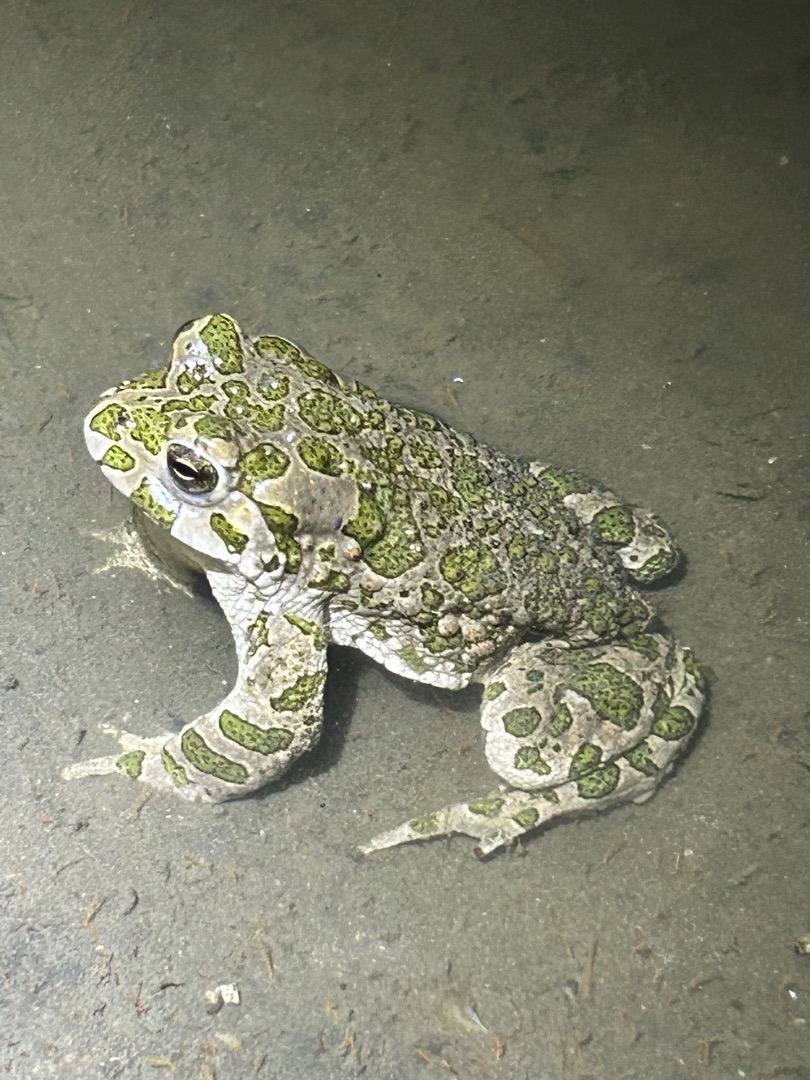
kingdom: Animalia
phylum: Chordata
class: Amphibia
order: Anura
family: Bufonidae
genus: Bufotes
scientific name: Bufotes viridis
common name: Grønbroget tudse
